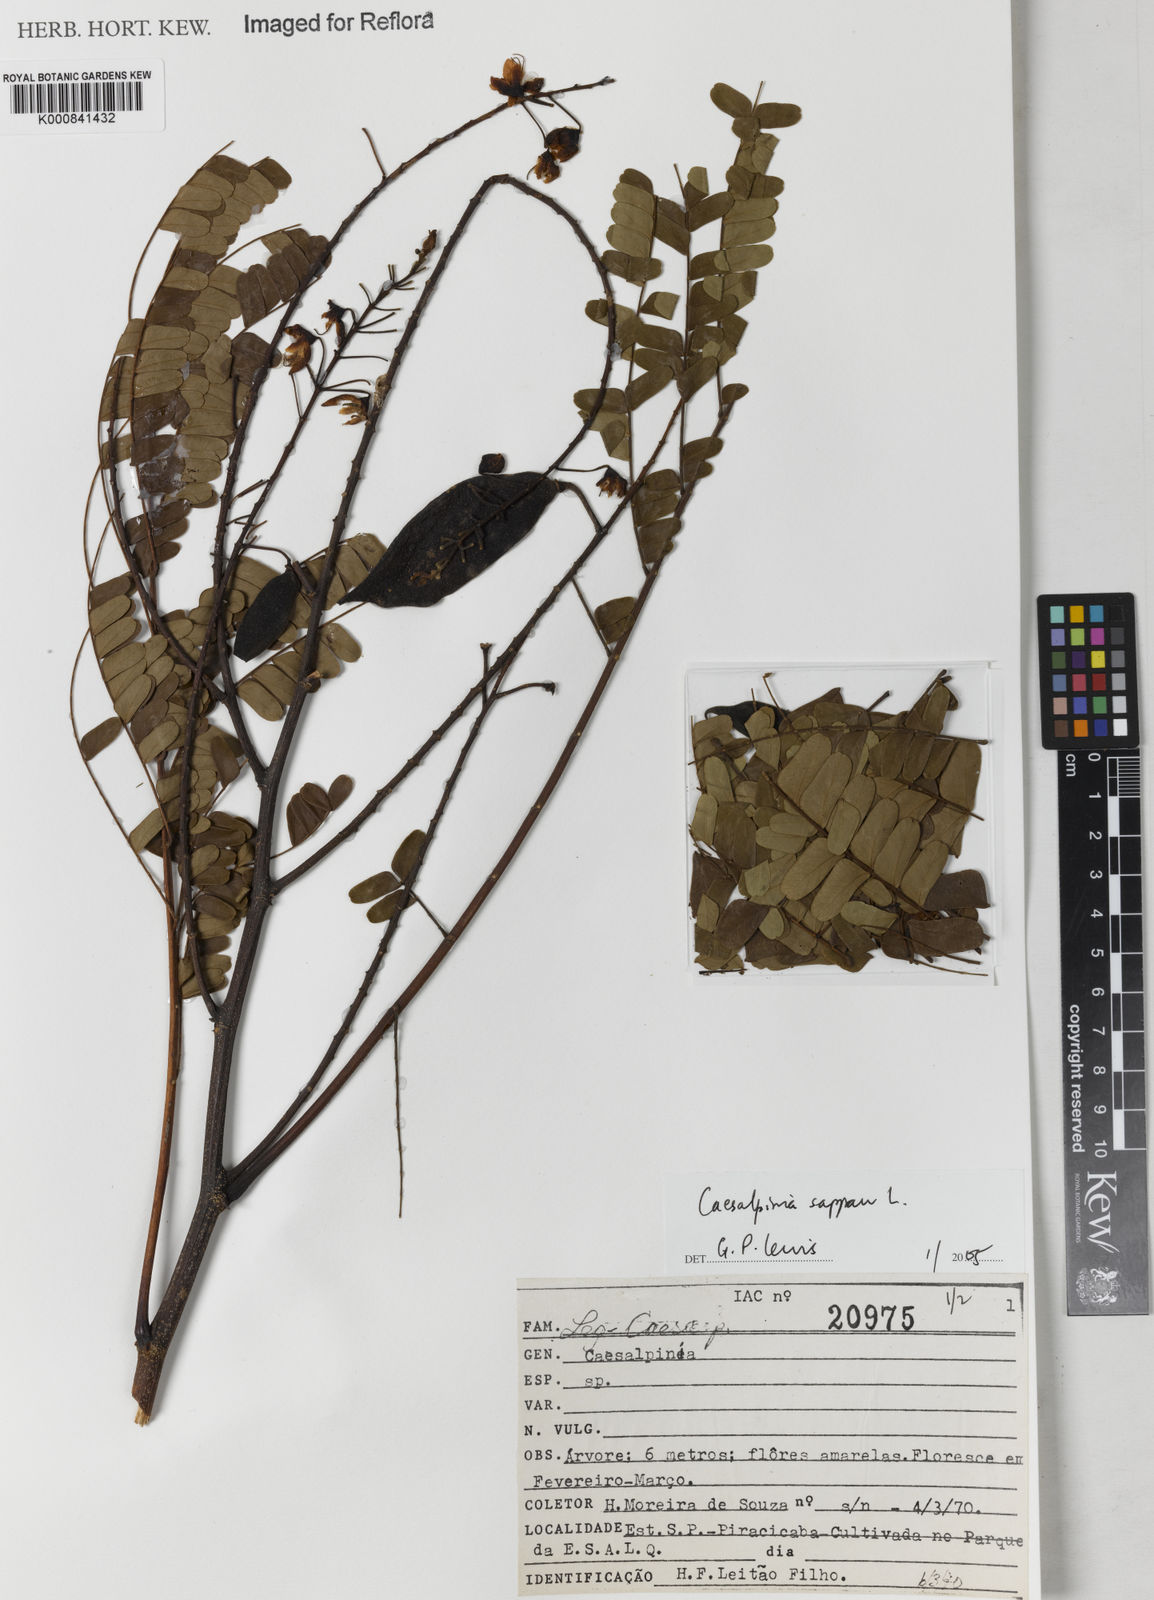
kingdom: Plantae
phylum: Tracheophyta
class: Magnoliopsida
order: Fabales
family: Fabaceae
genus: Biancaea
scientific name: Biancaea sappan
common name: Sappan
